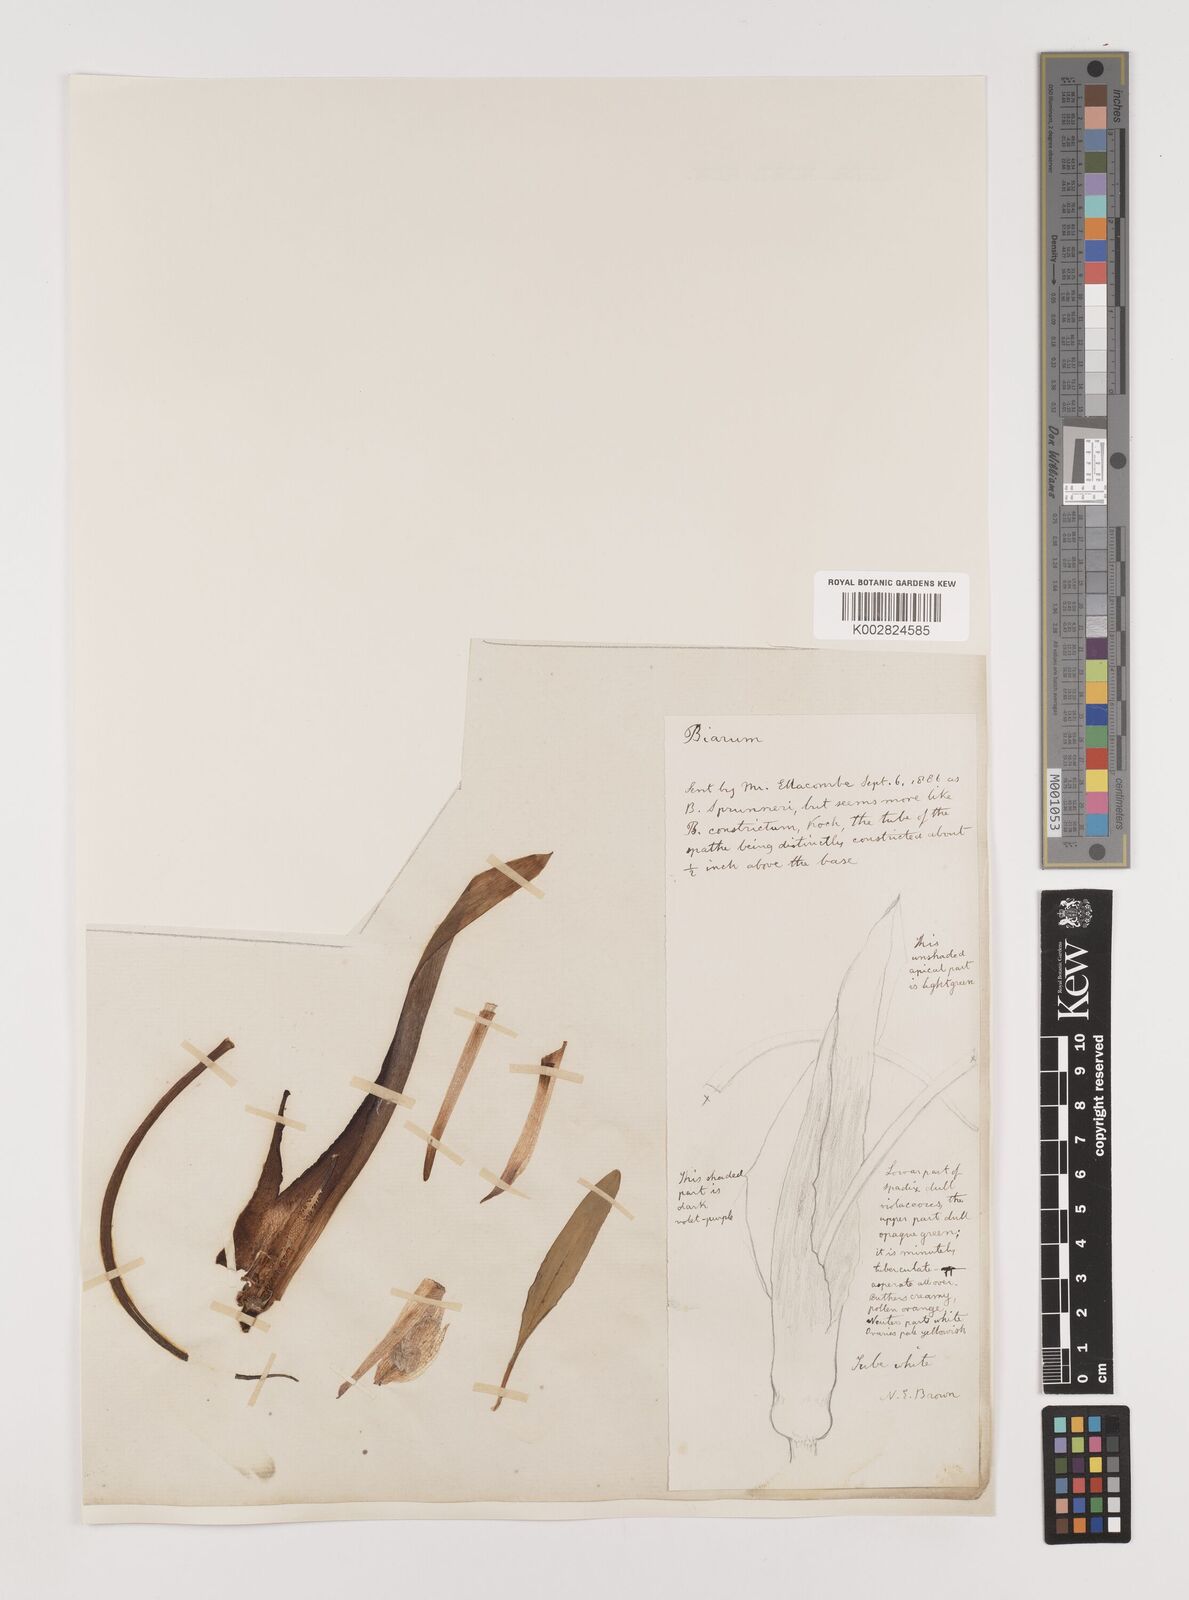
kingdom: Plantae
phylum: Tracheophyta
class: Liliopsida
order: Alismatales
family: Araceae
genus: Biarum
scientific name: Biarum tenuifolium
